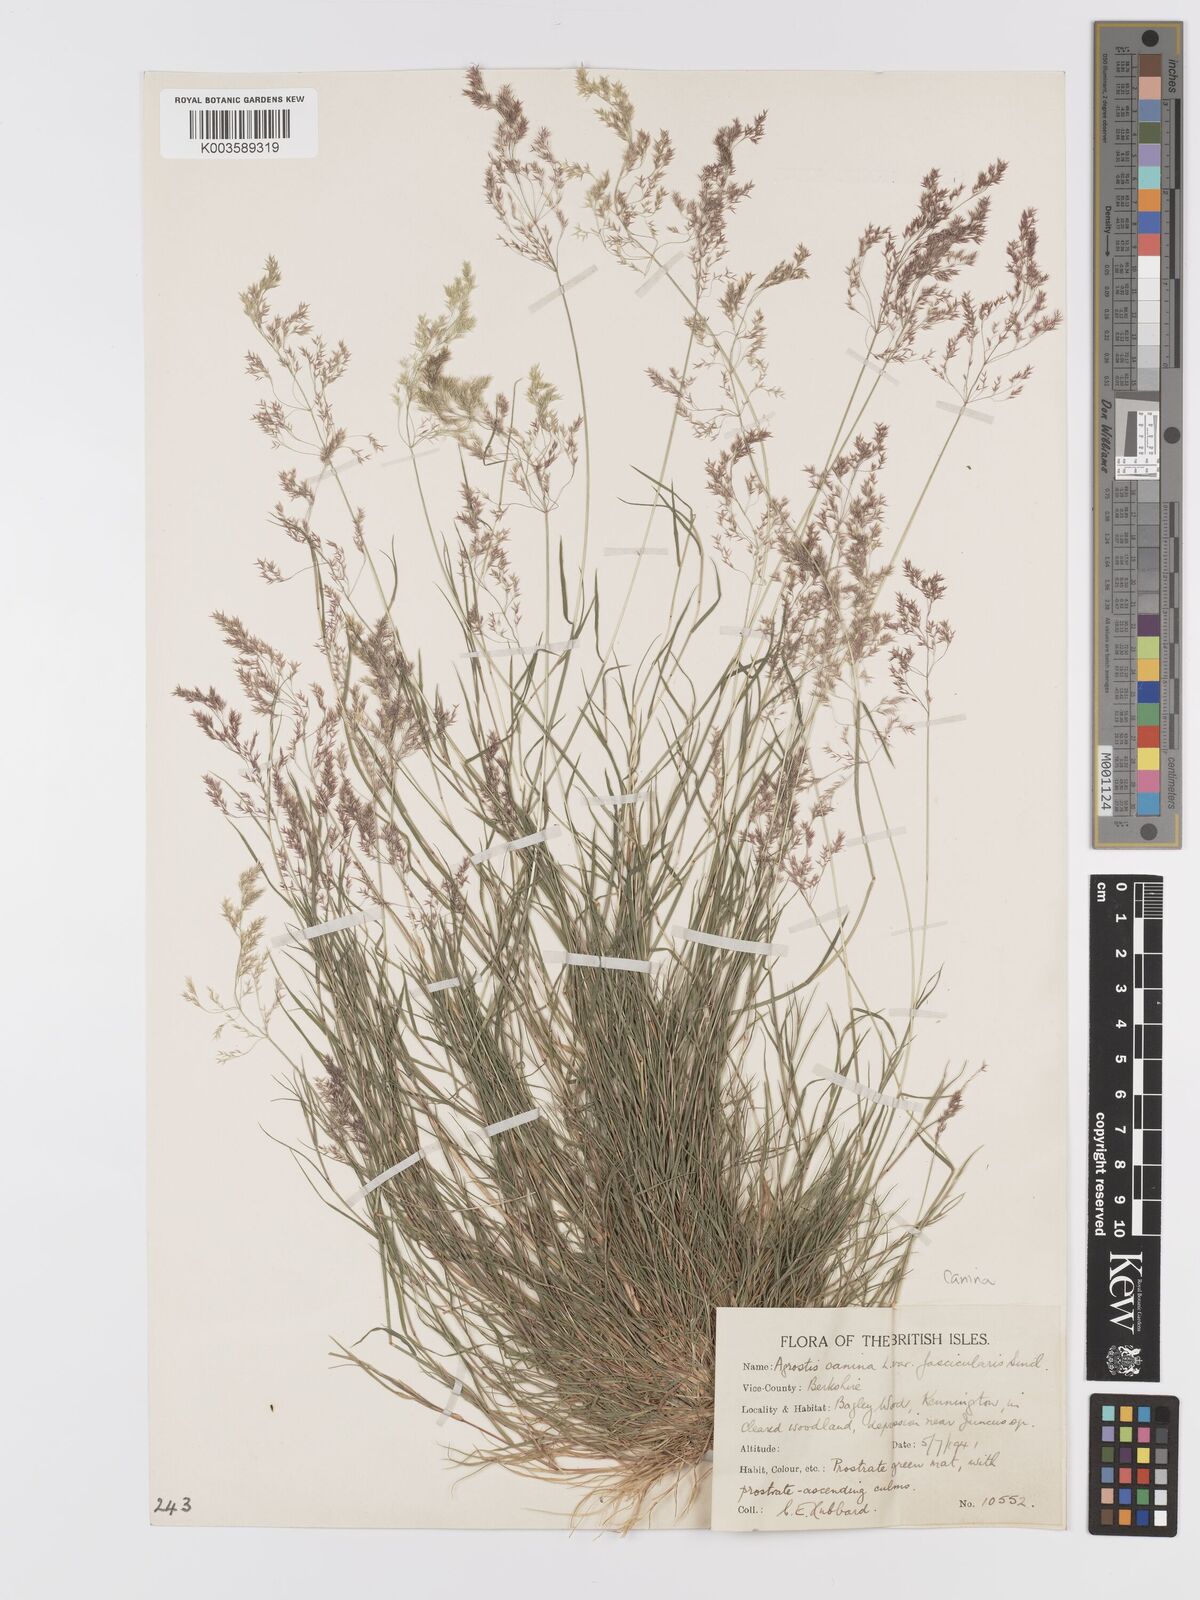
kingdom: Plantae
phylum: Tracheophyta
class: Liliopsida
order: Poales
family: Poaceae
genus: Agrostis
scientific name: Agrostis canina
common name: Velvet bent
